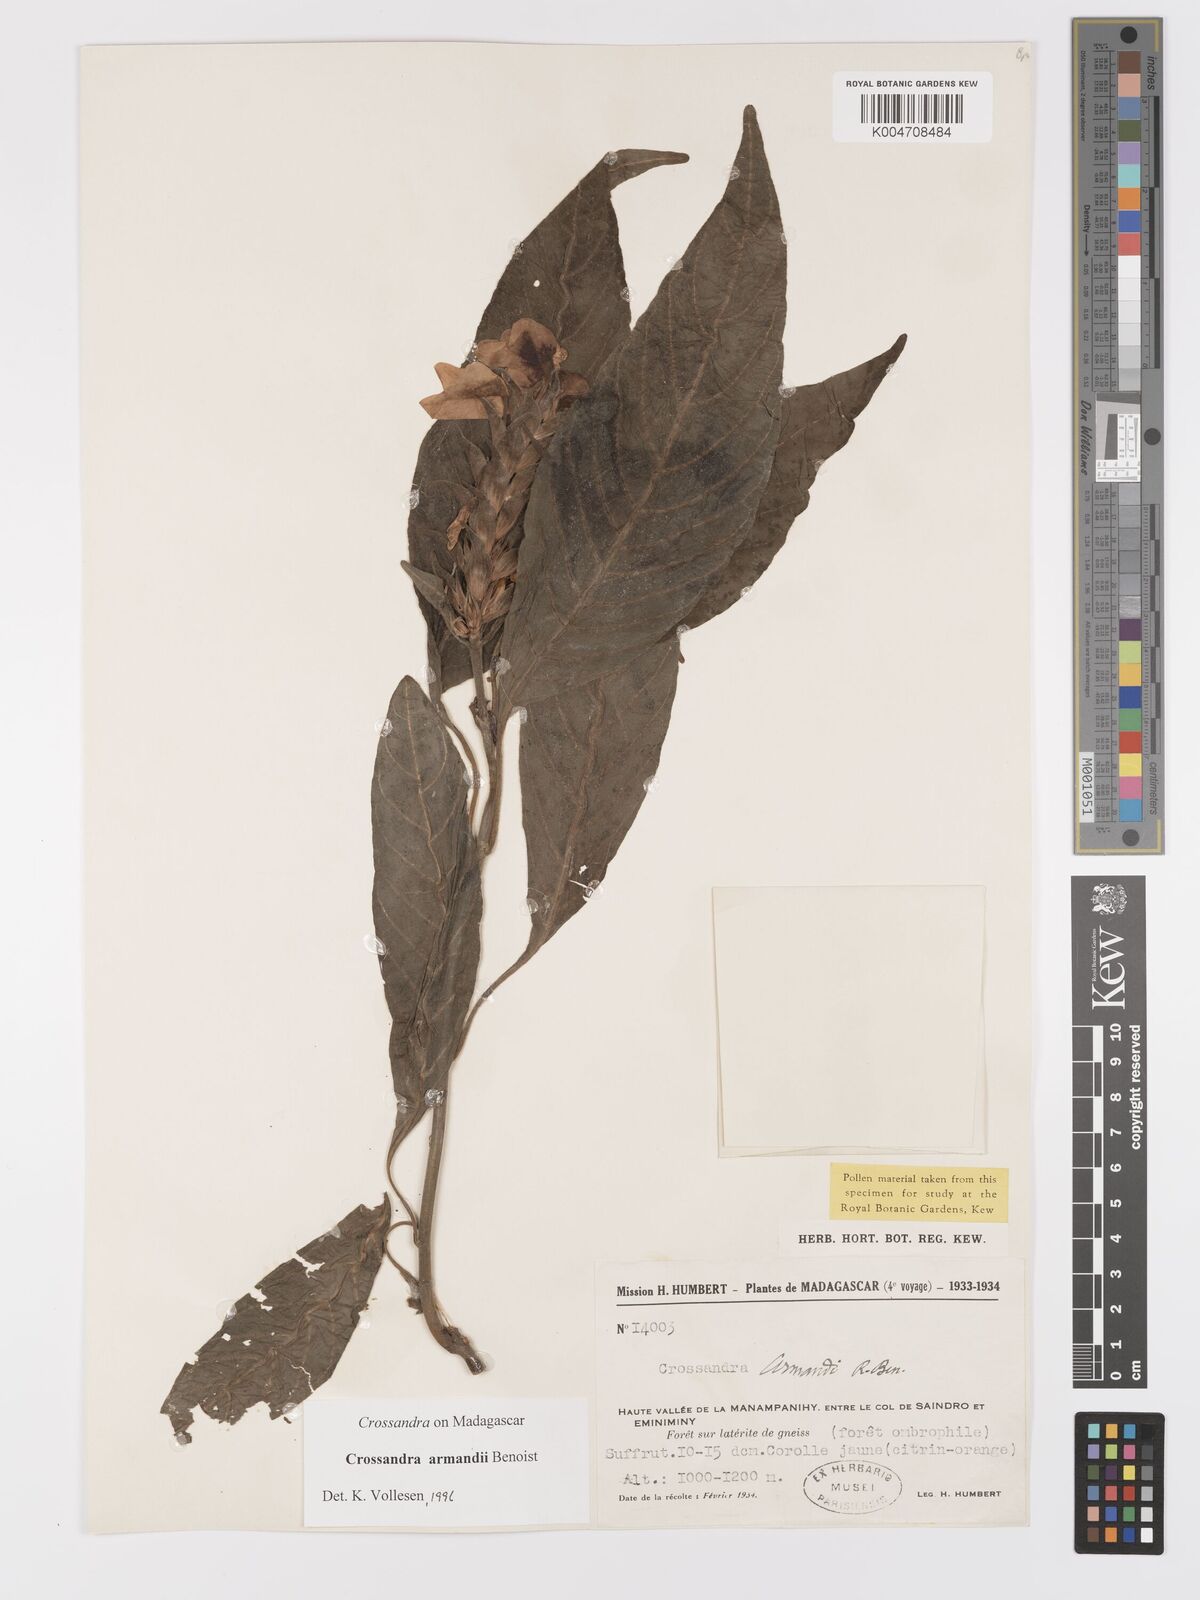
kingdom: Plantae
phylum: Tracheophyta
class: Magnoliopsida
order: Lamiales
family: Acanthaceae
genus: Crossandra
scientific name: Crossandra armandii
